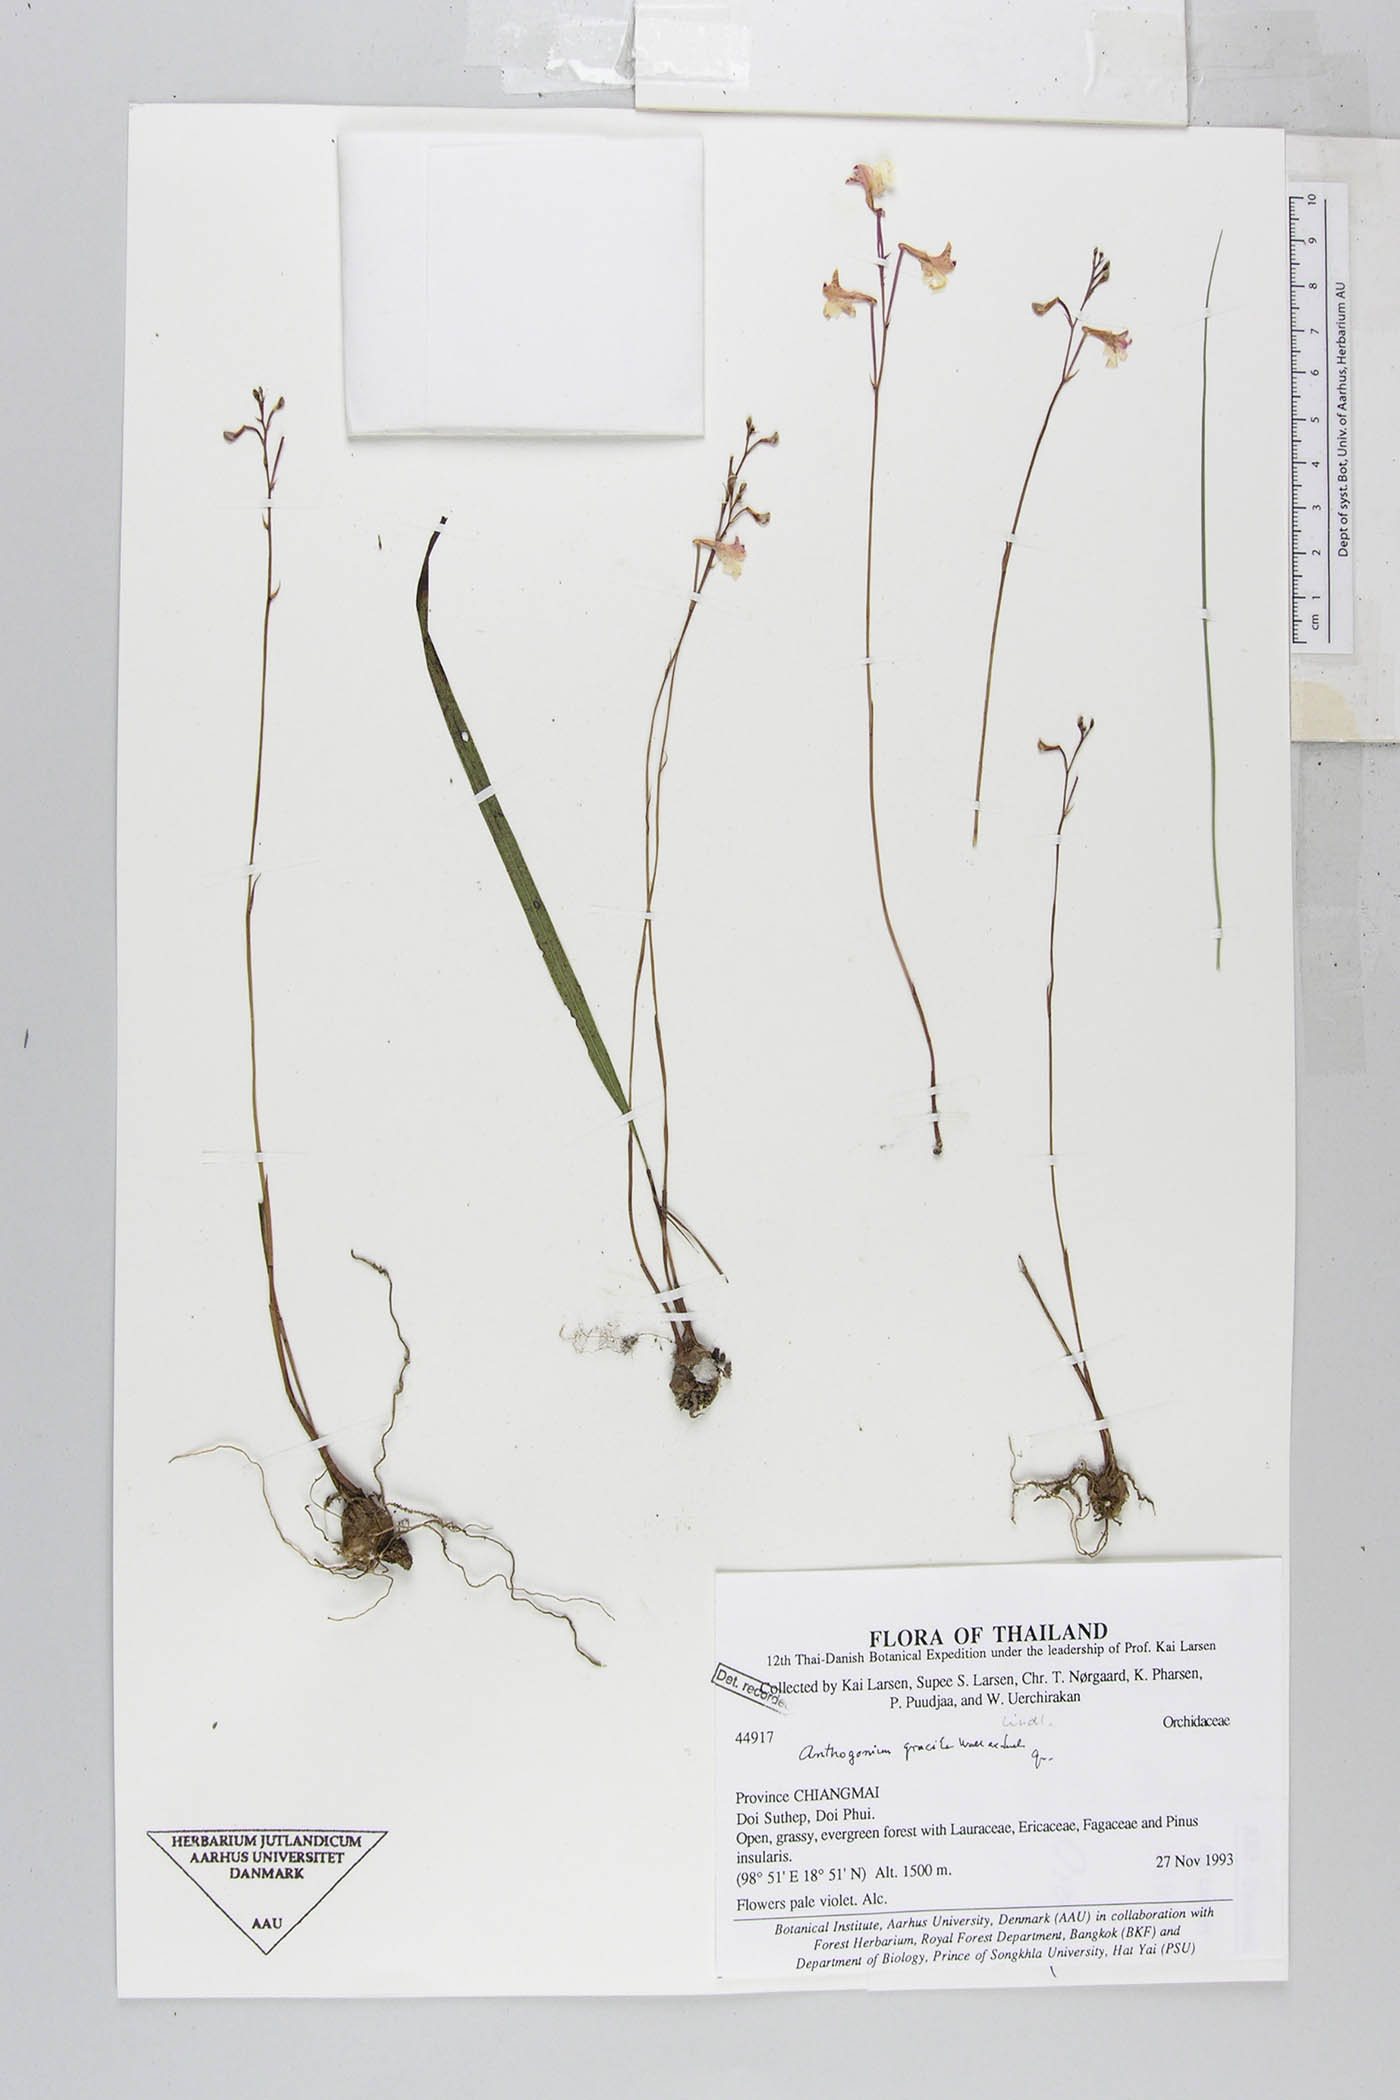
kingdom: Plantae
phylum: Tracheophyta
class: Liliopsida
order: Asparagales
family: Orchidaceae
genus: Anthogonium
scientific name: Anthogonium gracile
